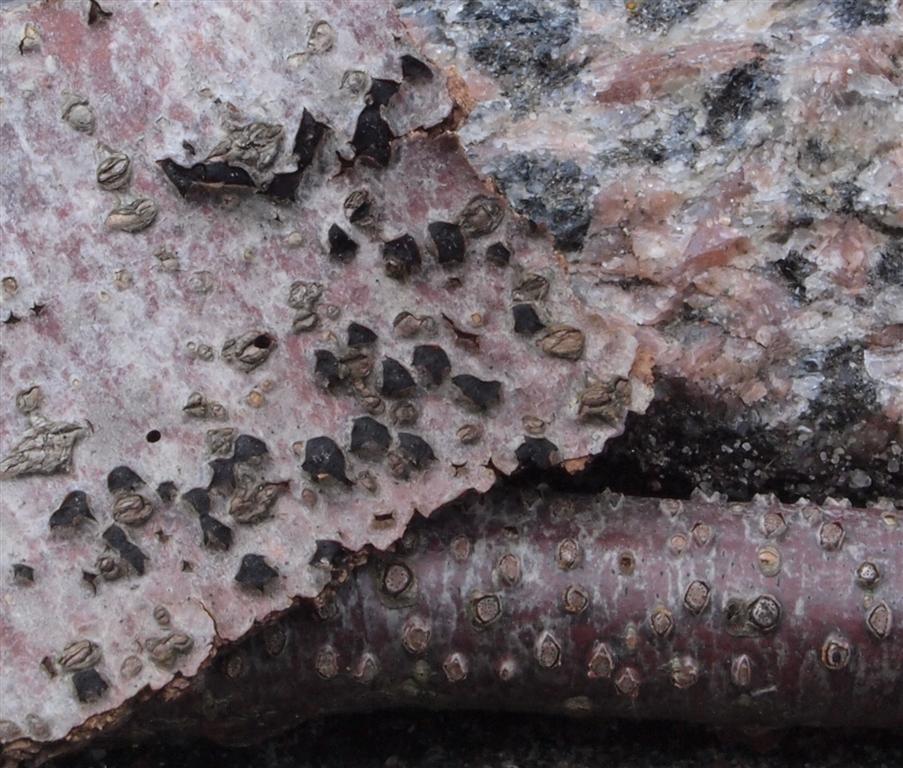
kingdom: Fungi
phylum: Ascomycota
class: Sordariomycetes
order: Xylariales
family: Diatrypaceae
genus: Diatrype
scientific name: Diatrype disciformis
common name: kant-kulskorpe
